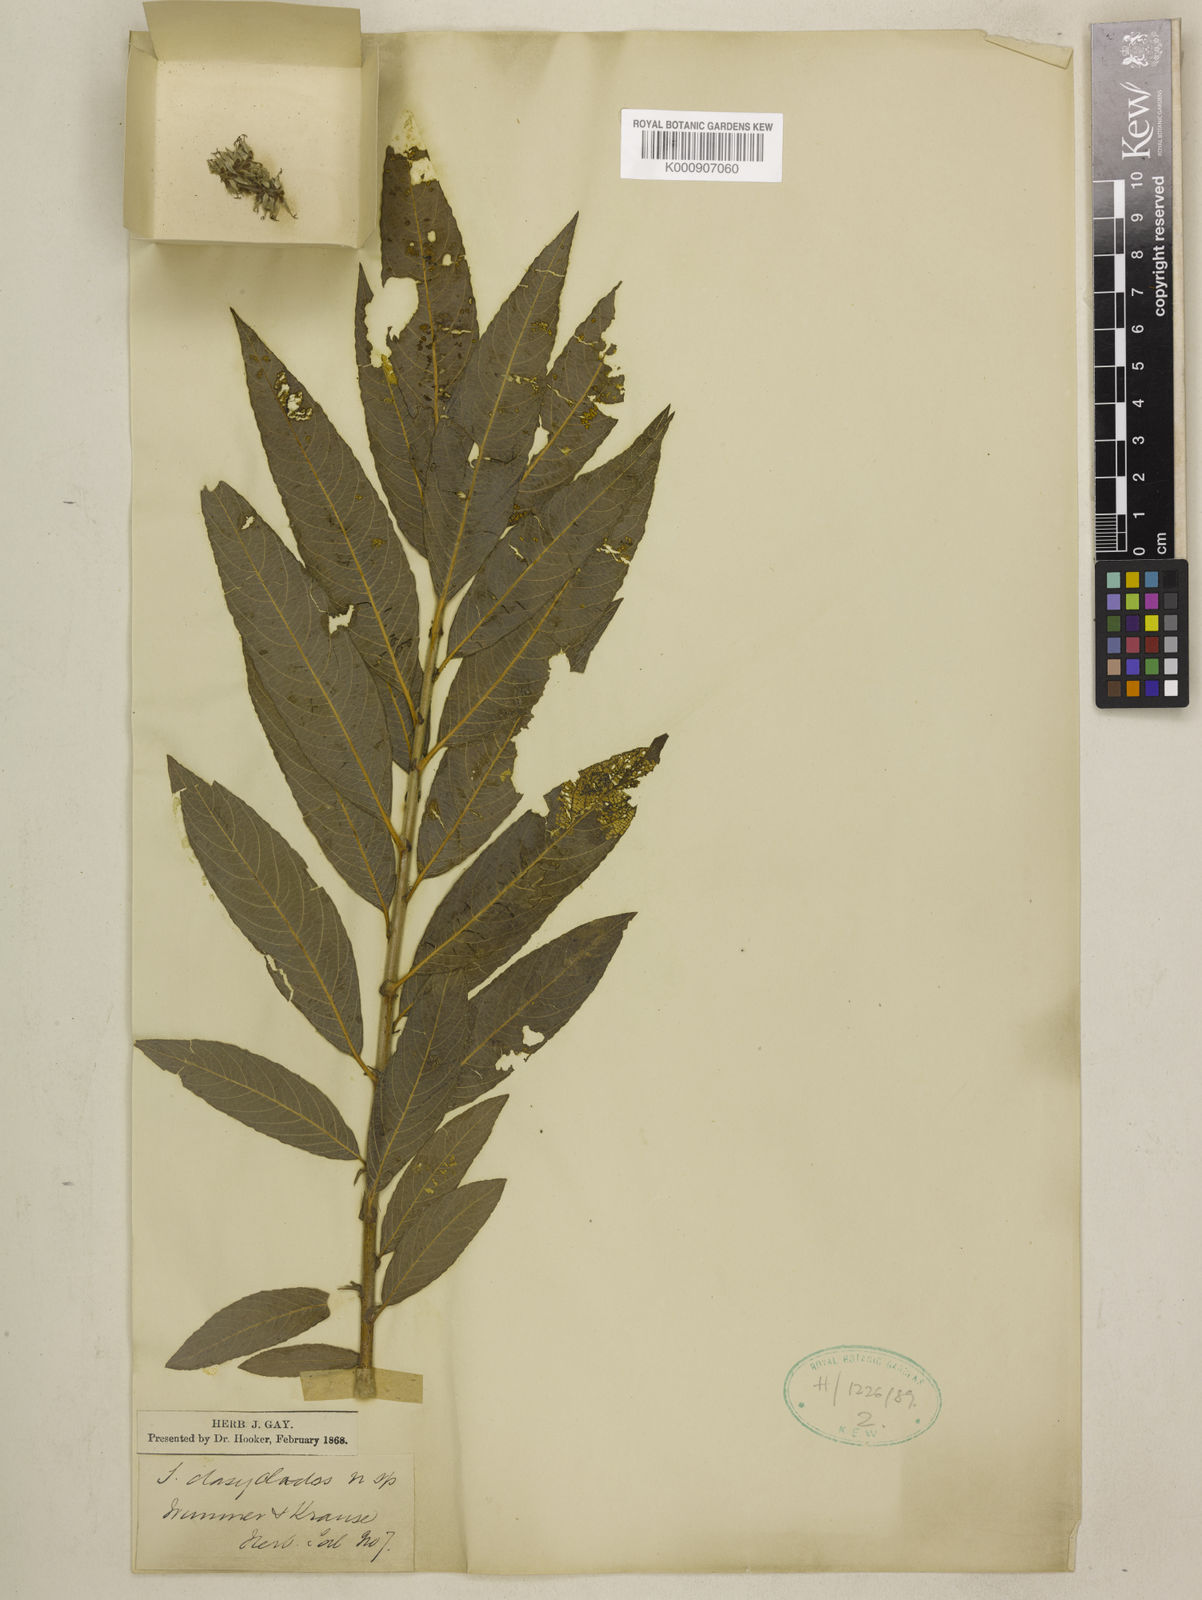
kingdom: Plantae
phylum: Tracheophyta
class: Magnoliopsida
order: Malpighiales
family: Salicaceae
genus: Salix
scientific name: Salix gmelinii
